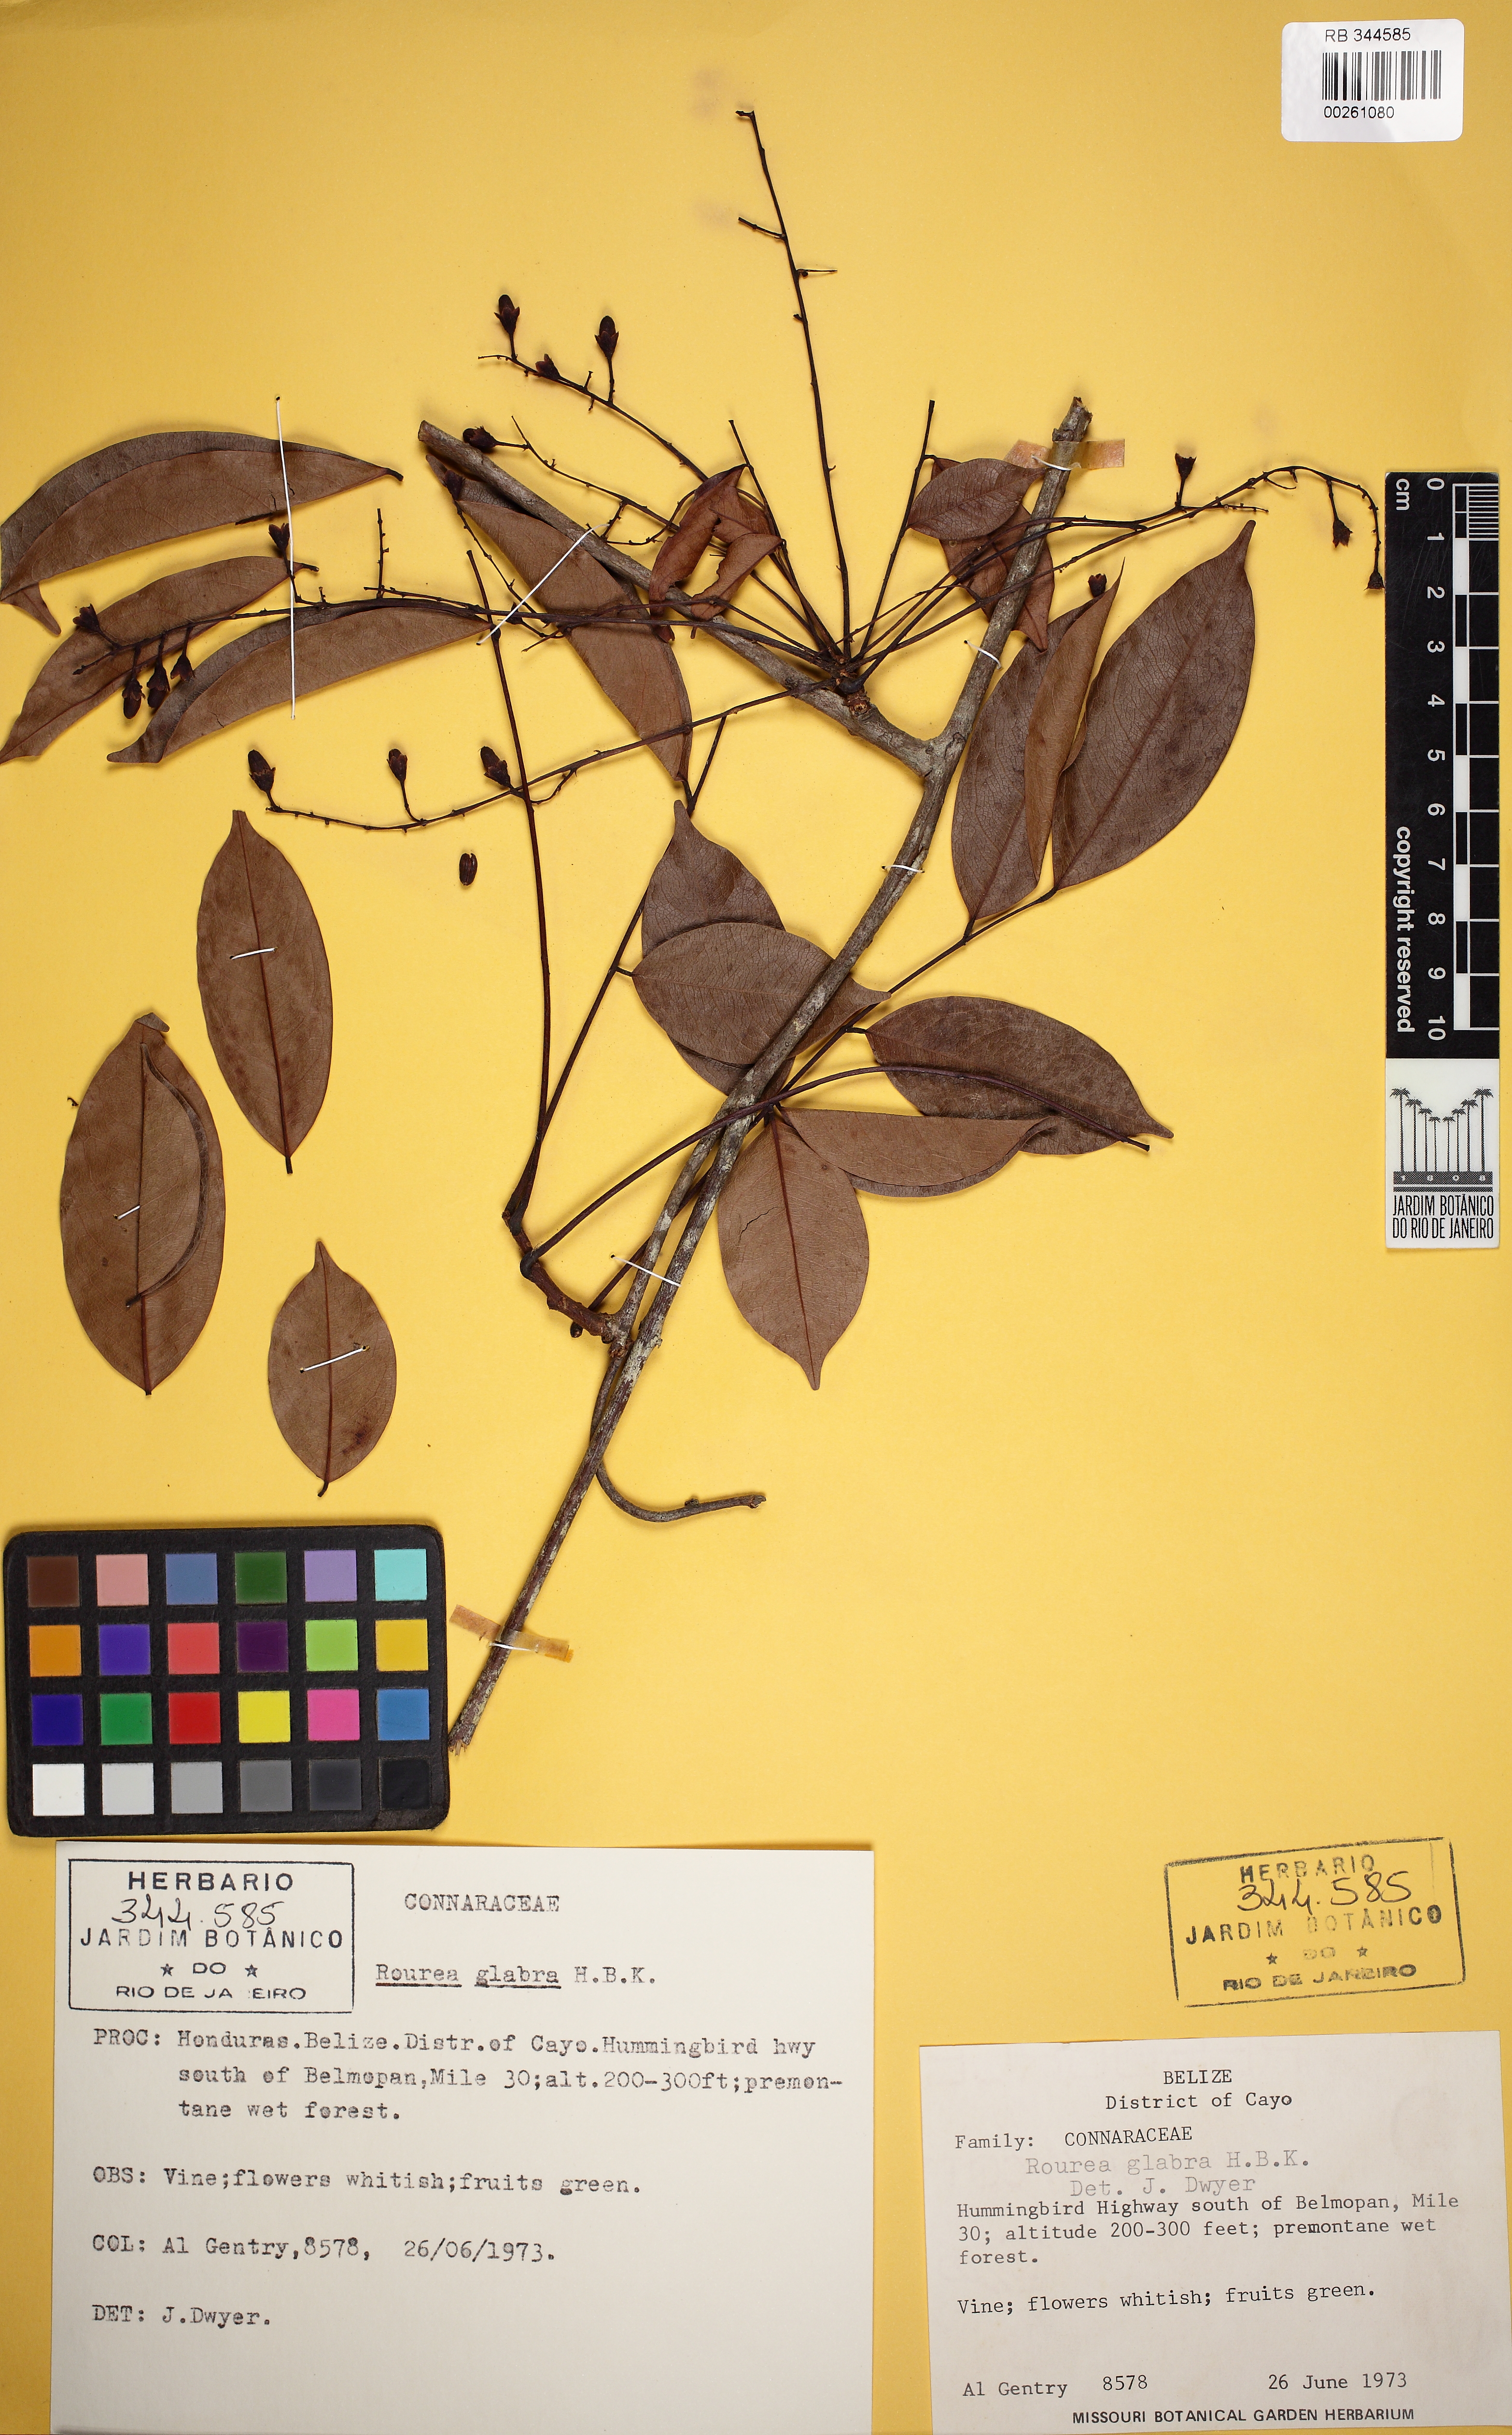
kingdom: Plantae
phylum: Tracheophyta
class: Magnoliopsida
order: Oxalidales
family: Connaraceae
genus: Rourea
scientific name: Rourea glabra
